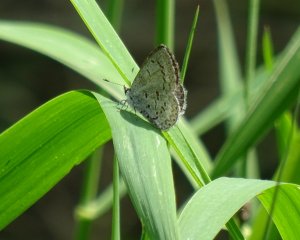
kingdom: Animalia
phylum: Arthropoda
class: Insecta
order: Lepidoptera
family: Lycaenidae
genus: Celastrina
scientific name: Celastrina lucia
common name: Northern Spring Azure
